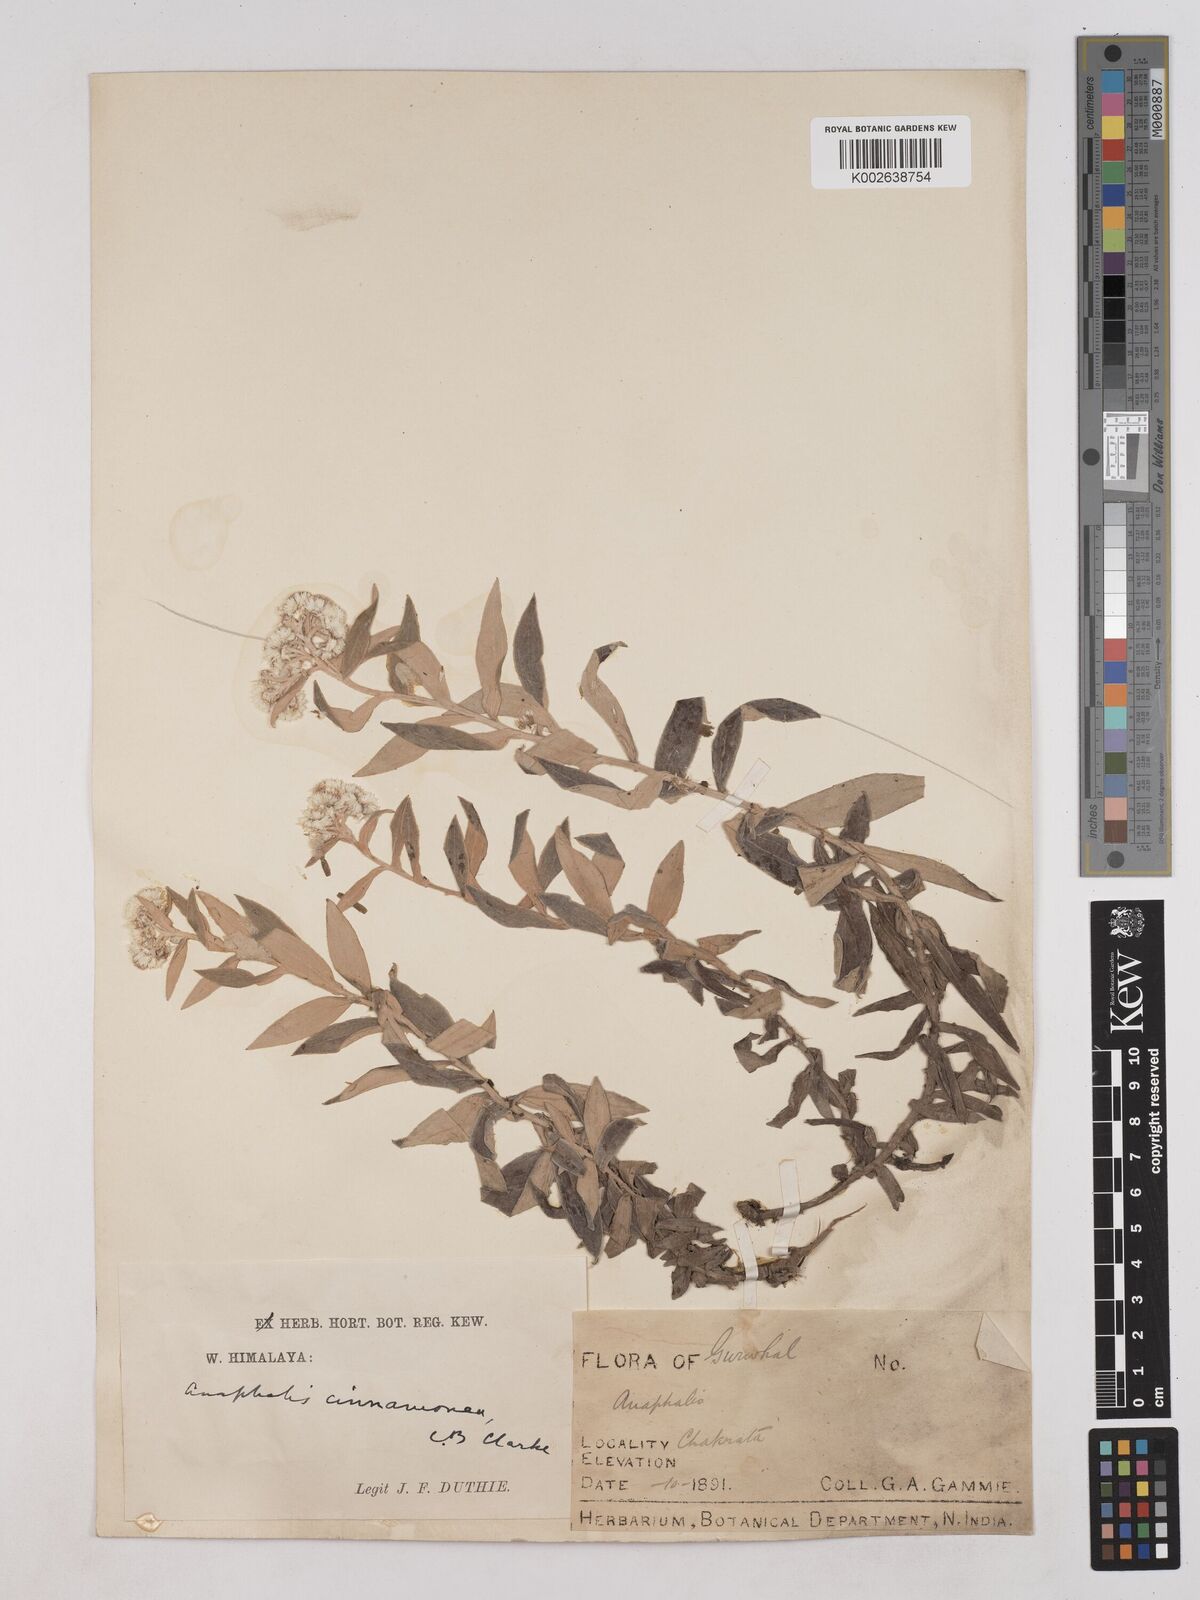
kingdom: Plantae
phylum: Tracheophyta
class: Magnoliopsida
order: Asterales
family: Asteraceae
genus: Anaphalis
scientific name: Anaphalis marcescens
